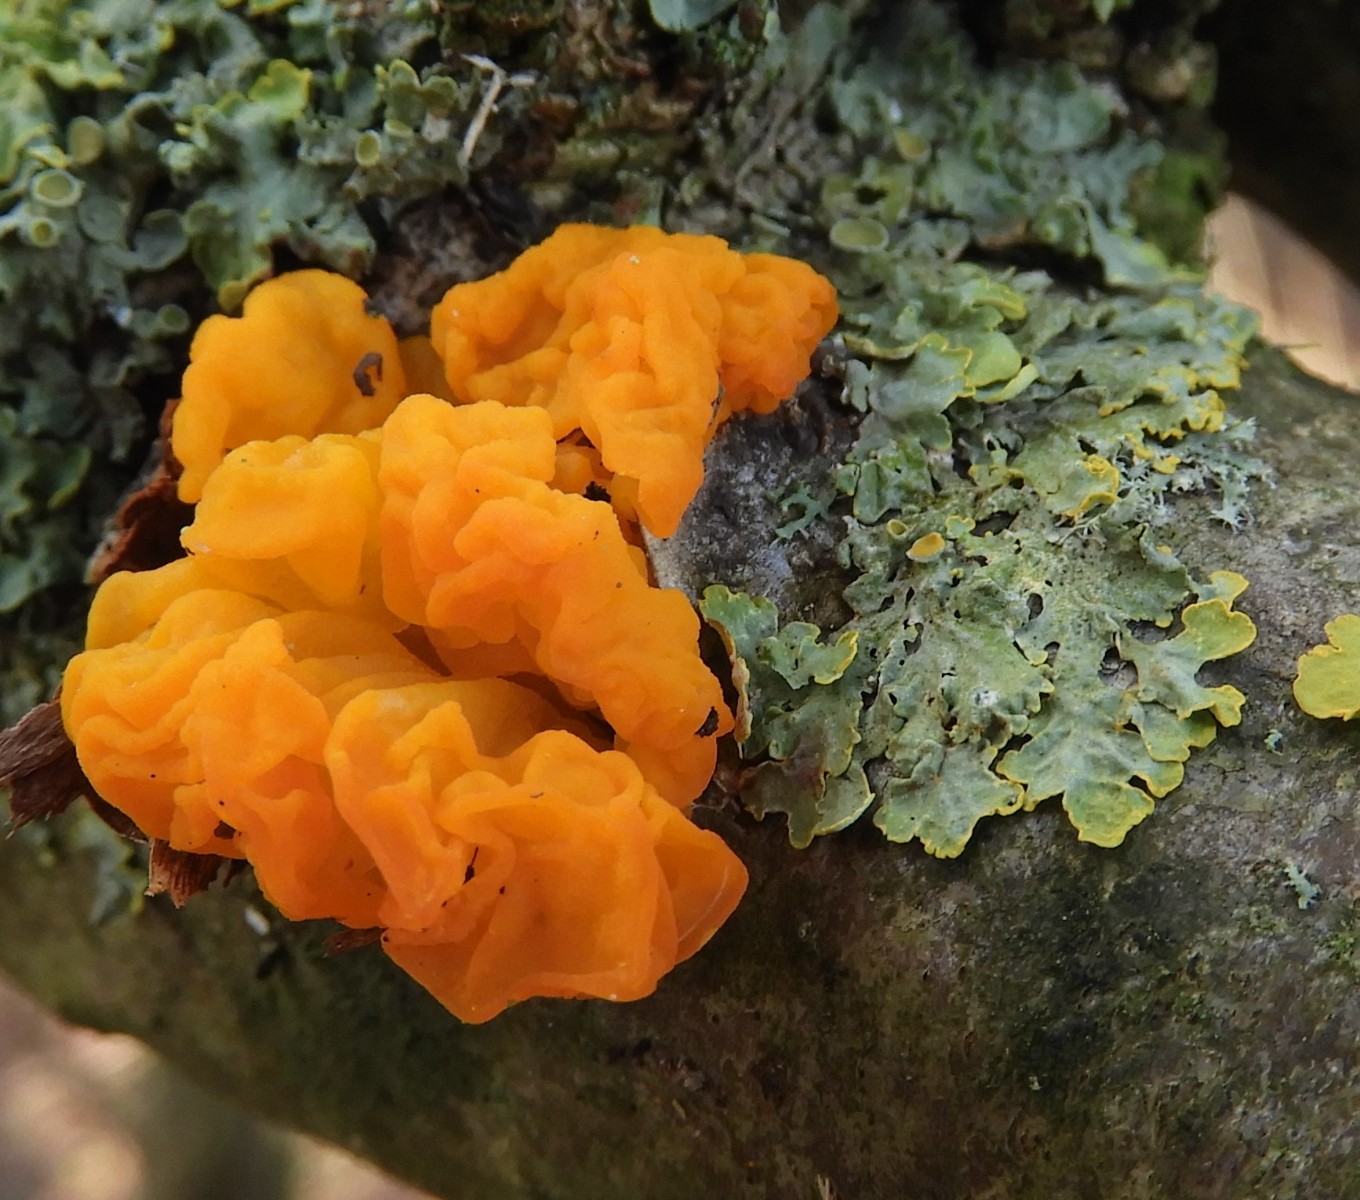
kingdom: Fungi
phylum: Basidiomycota
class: Tremellomycetes
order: Tremellales
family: Tremellaceae
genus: Tremella
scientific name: Tremella mesenterica
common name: gul bævresvamp
